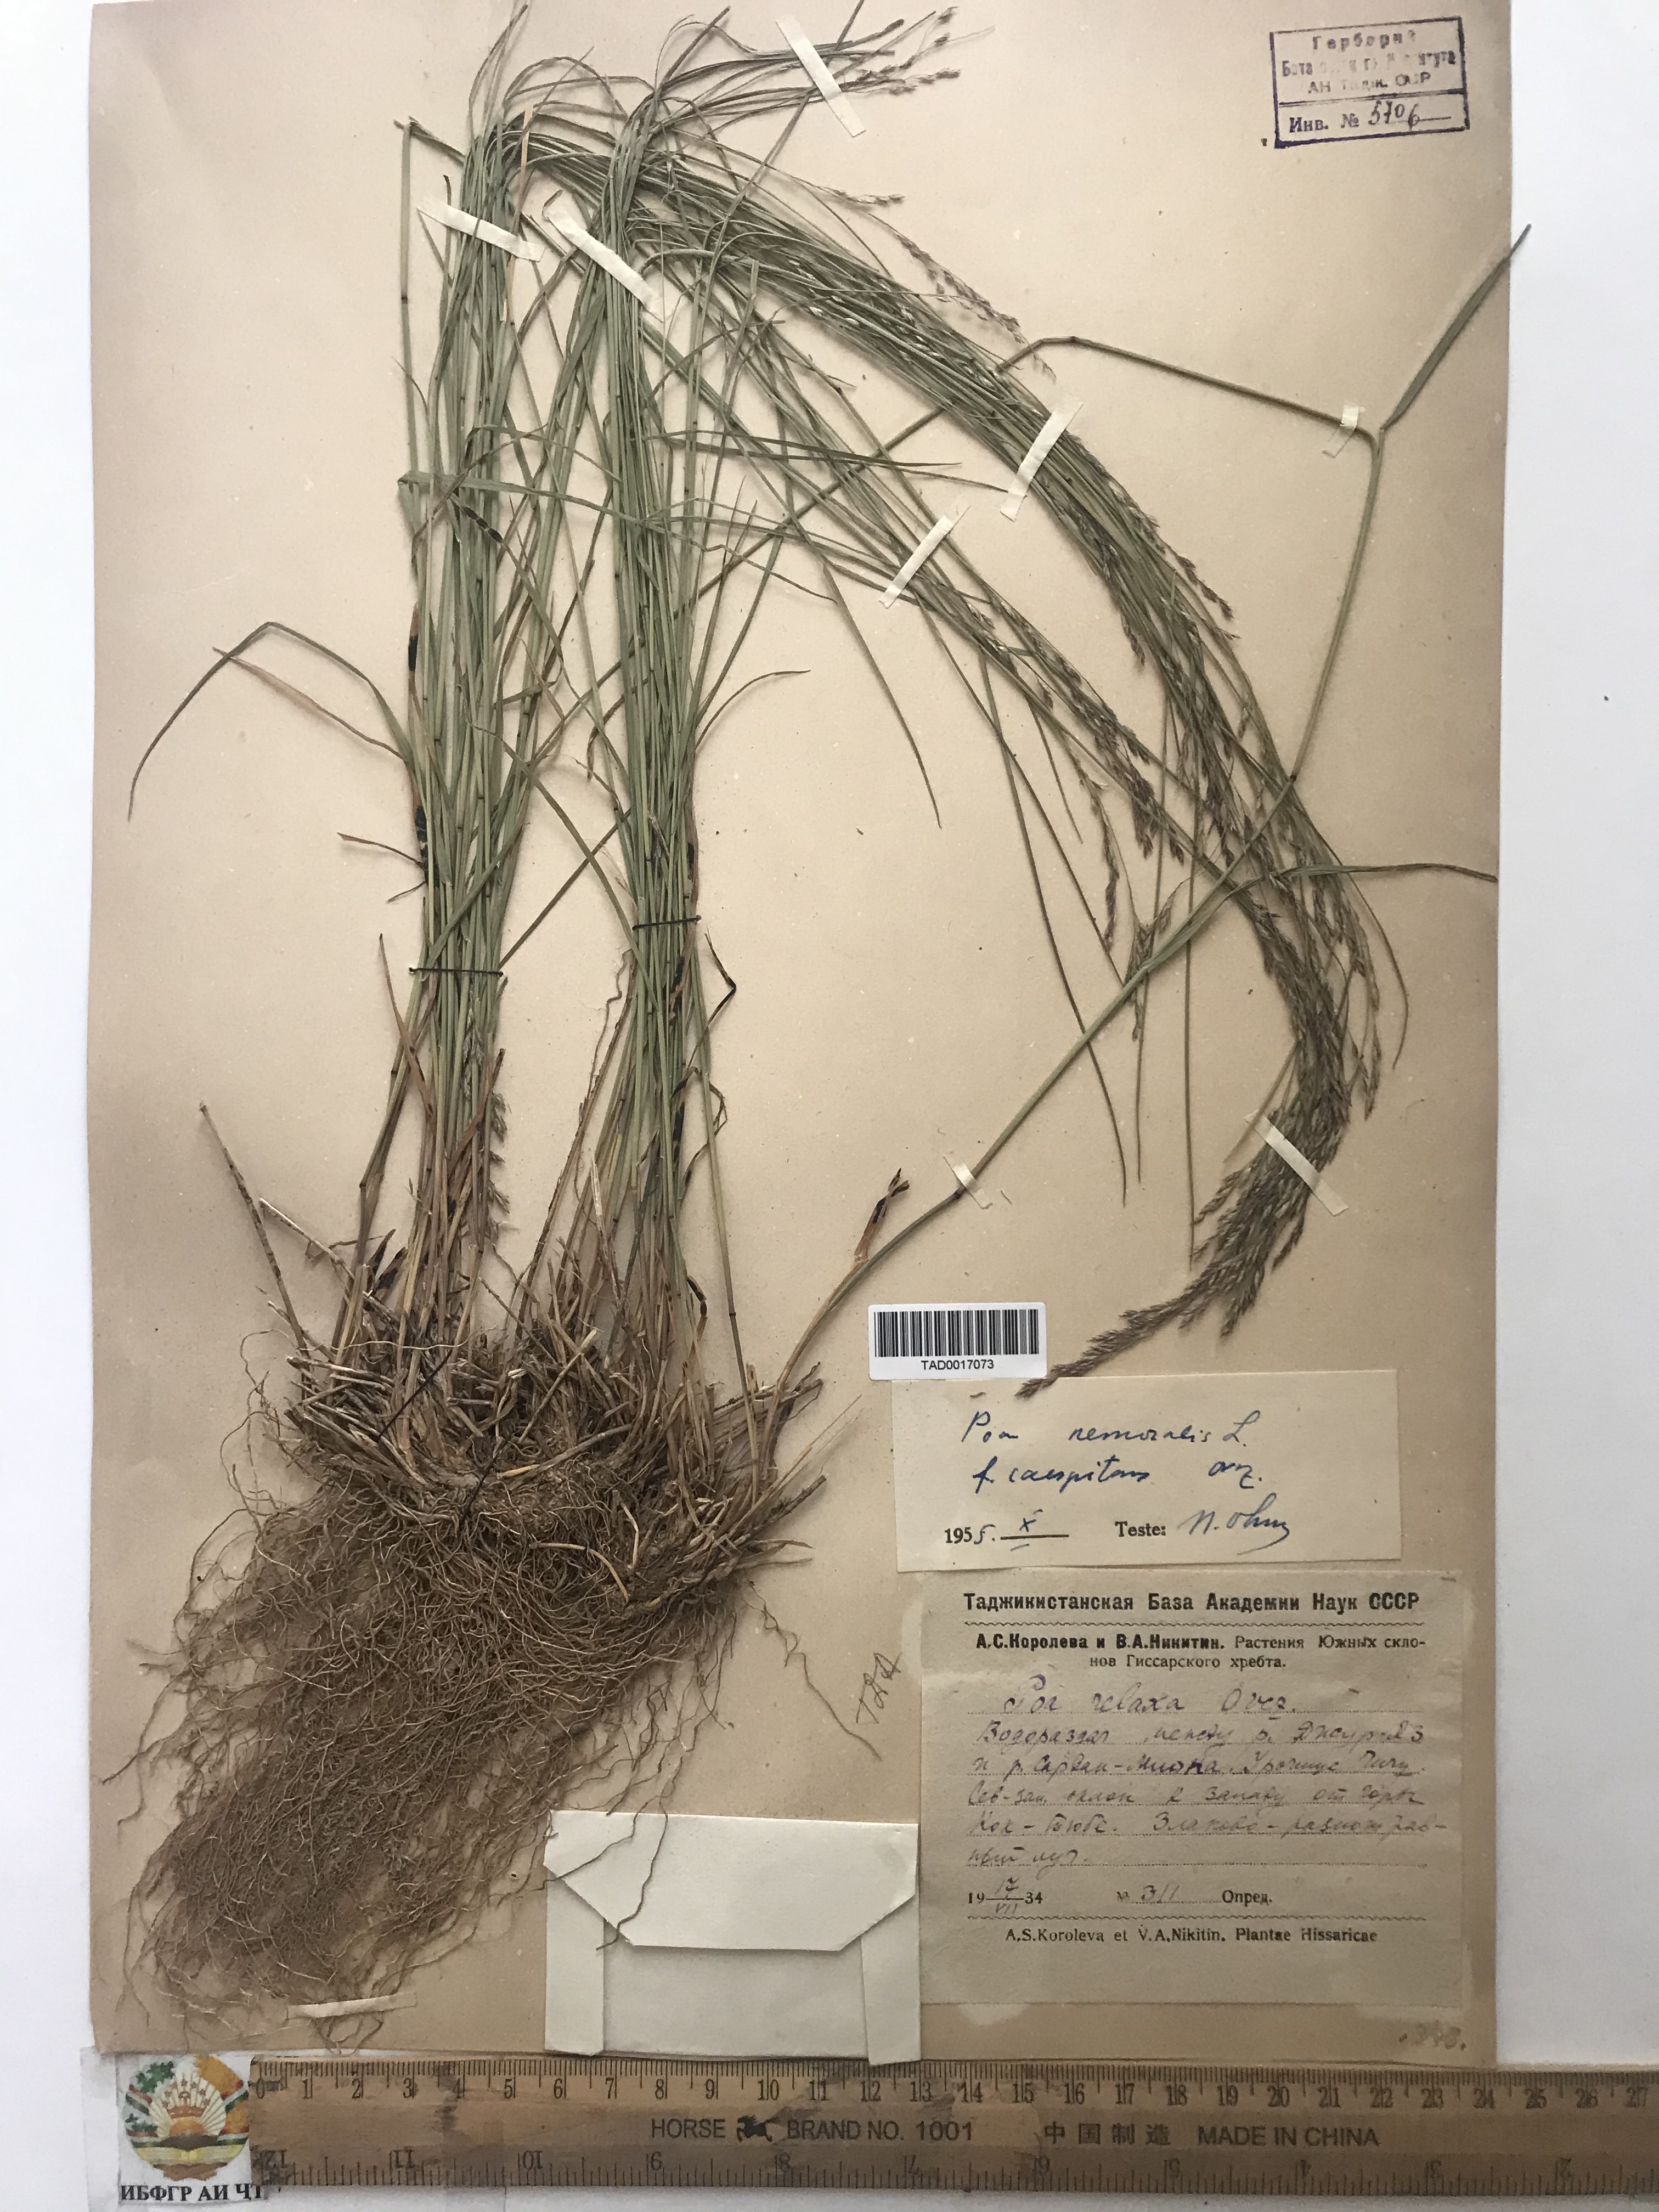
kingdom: Plantae
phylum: Tracheophyta
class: Liliopsida
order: Poales
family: Poaceae
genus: Poa
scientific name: Poa nemoralis
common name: Wood bluegrass
